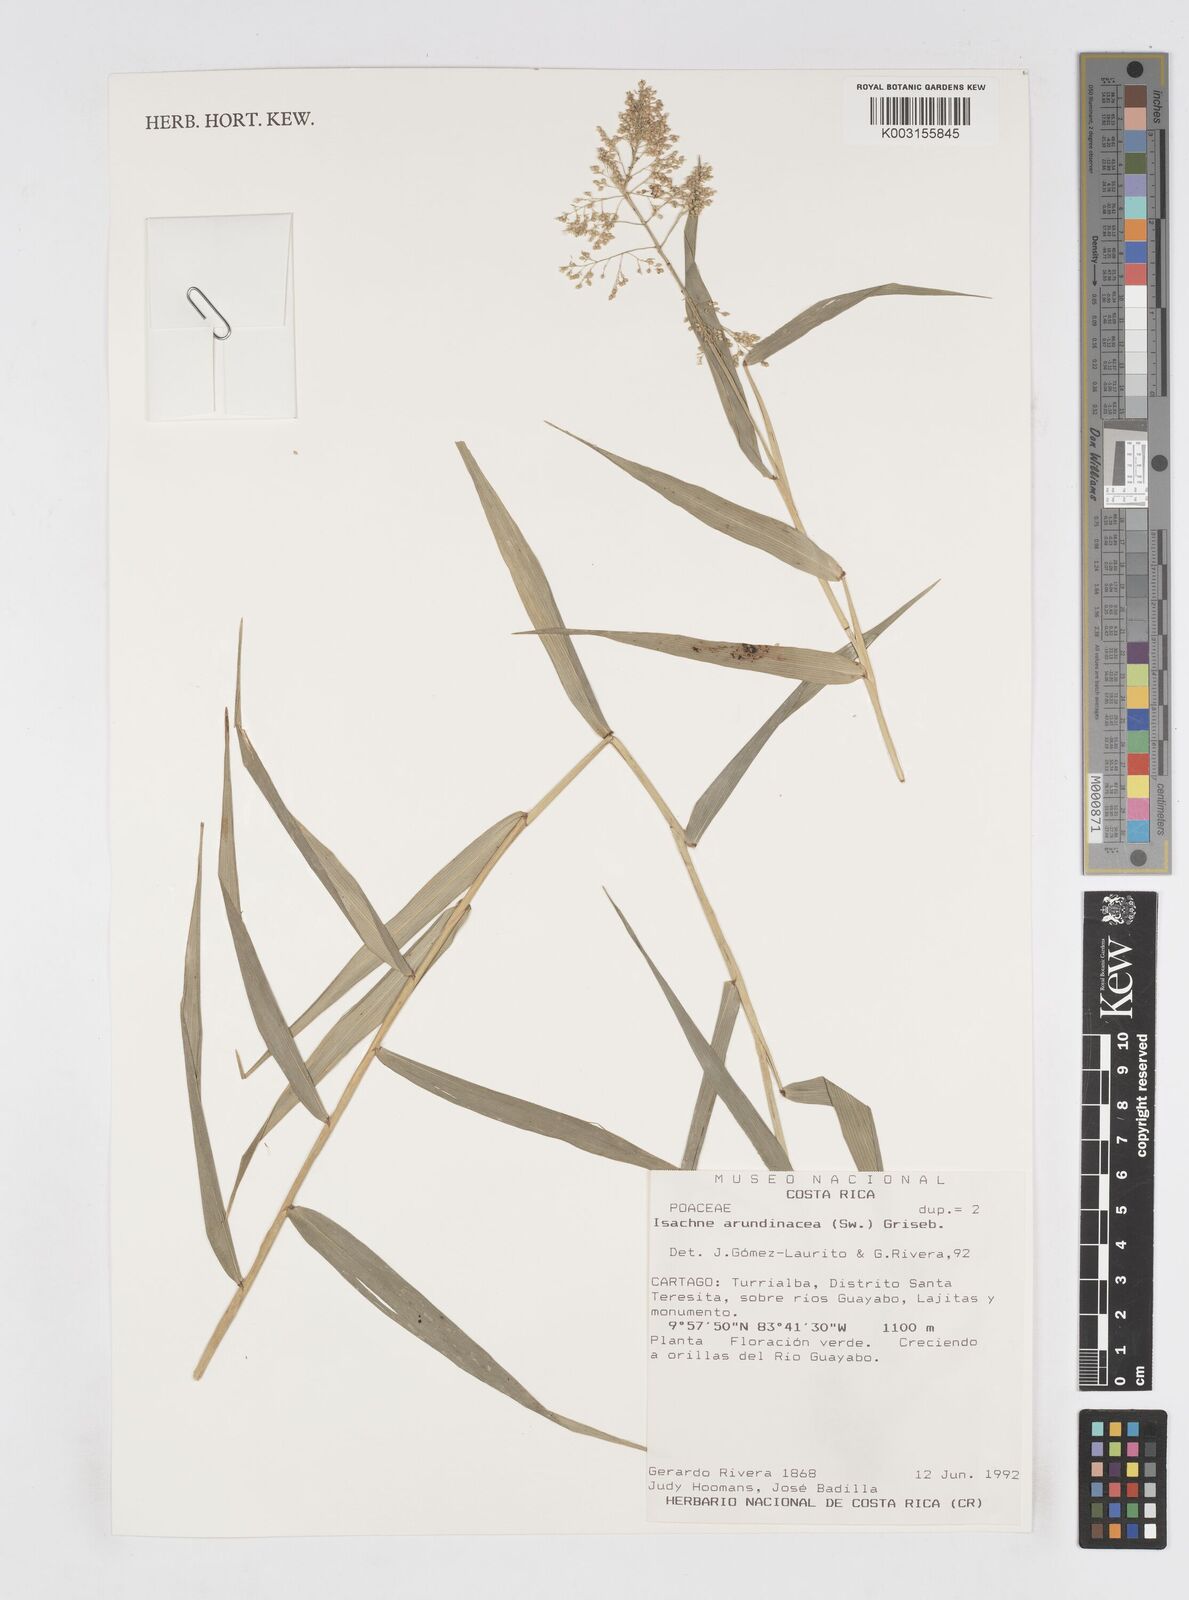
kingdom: Plantae
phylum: Tracheophyta
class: Liliopsida
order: Poales
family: Poaceae
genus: Isachne
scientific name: Isachne arundinacea
